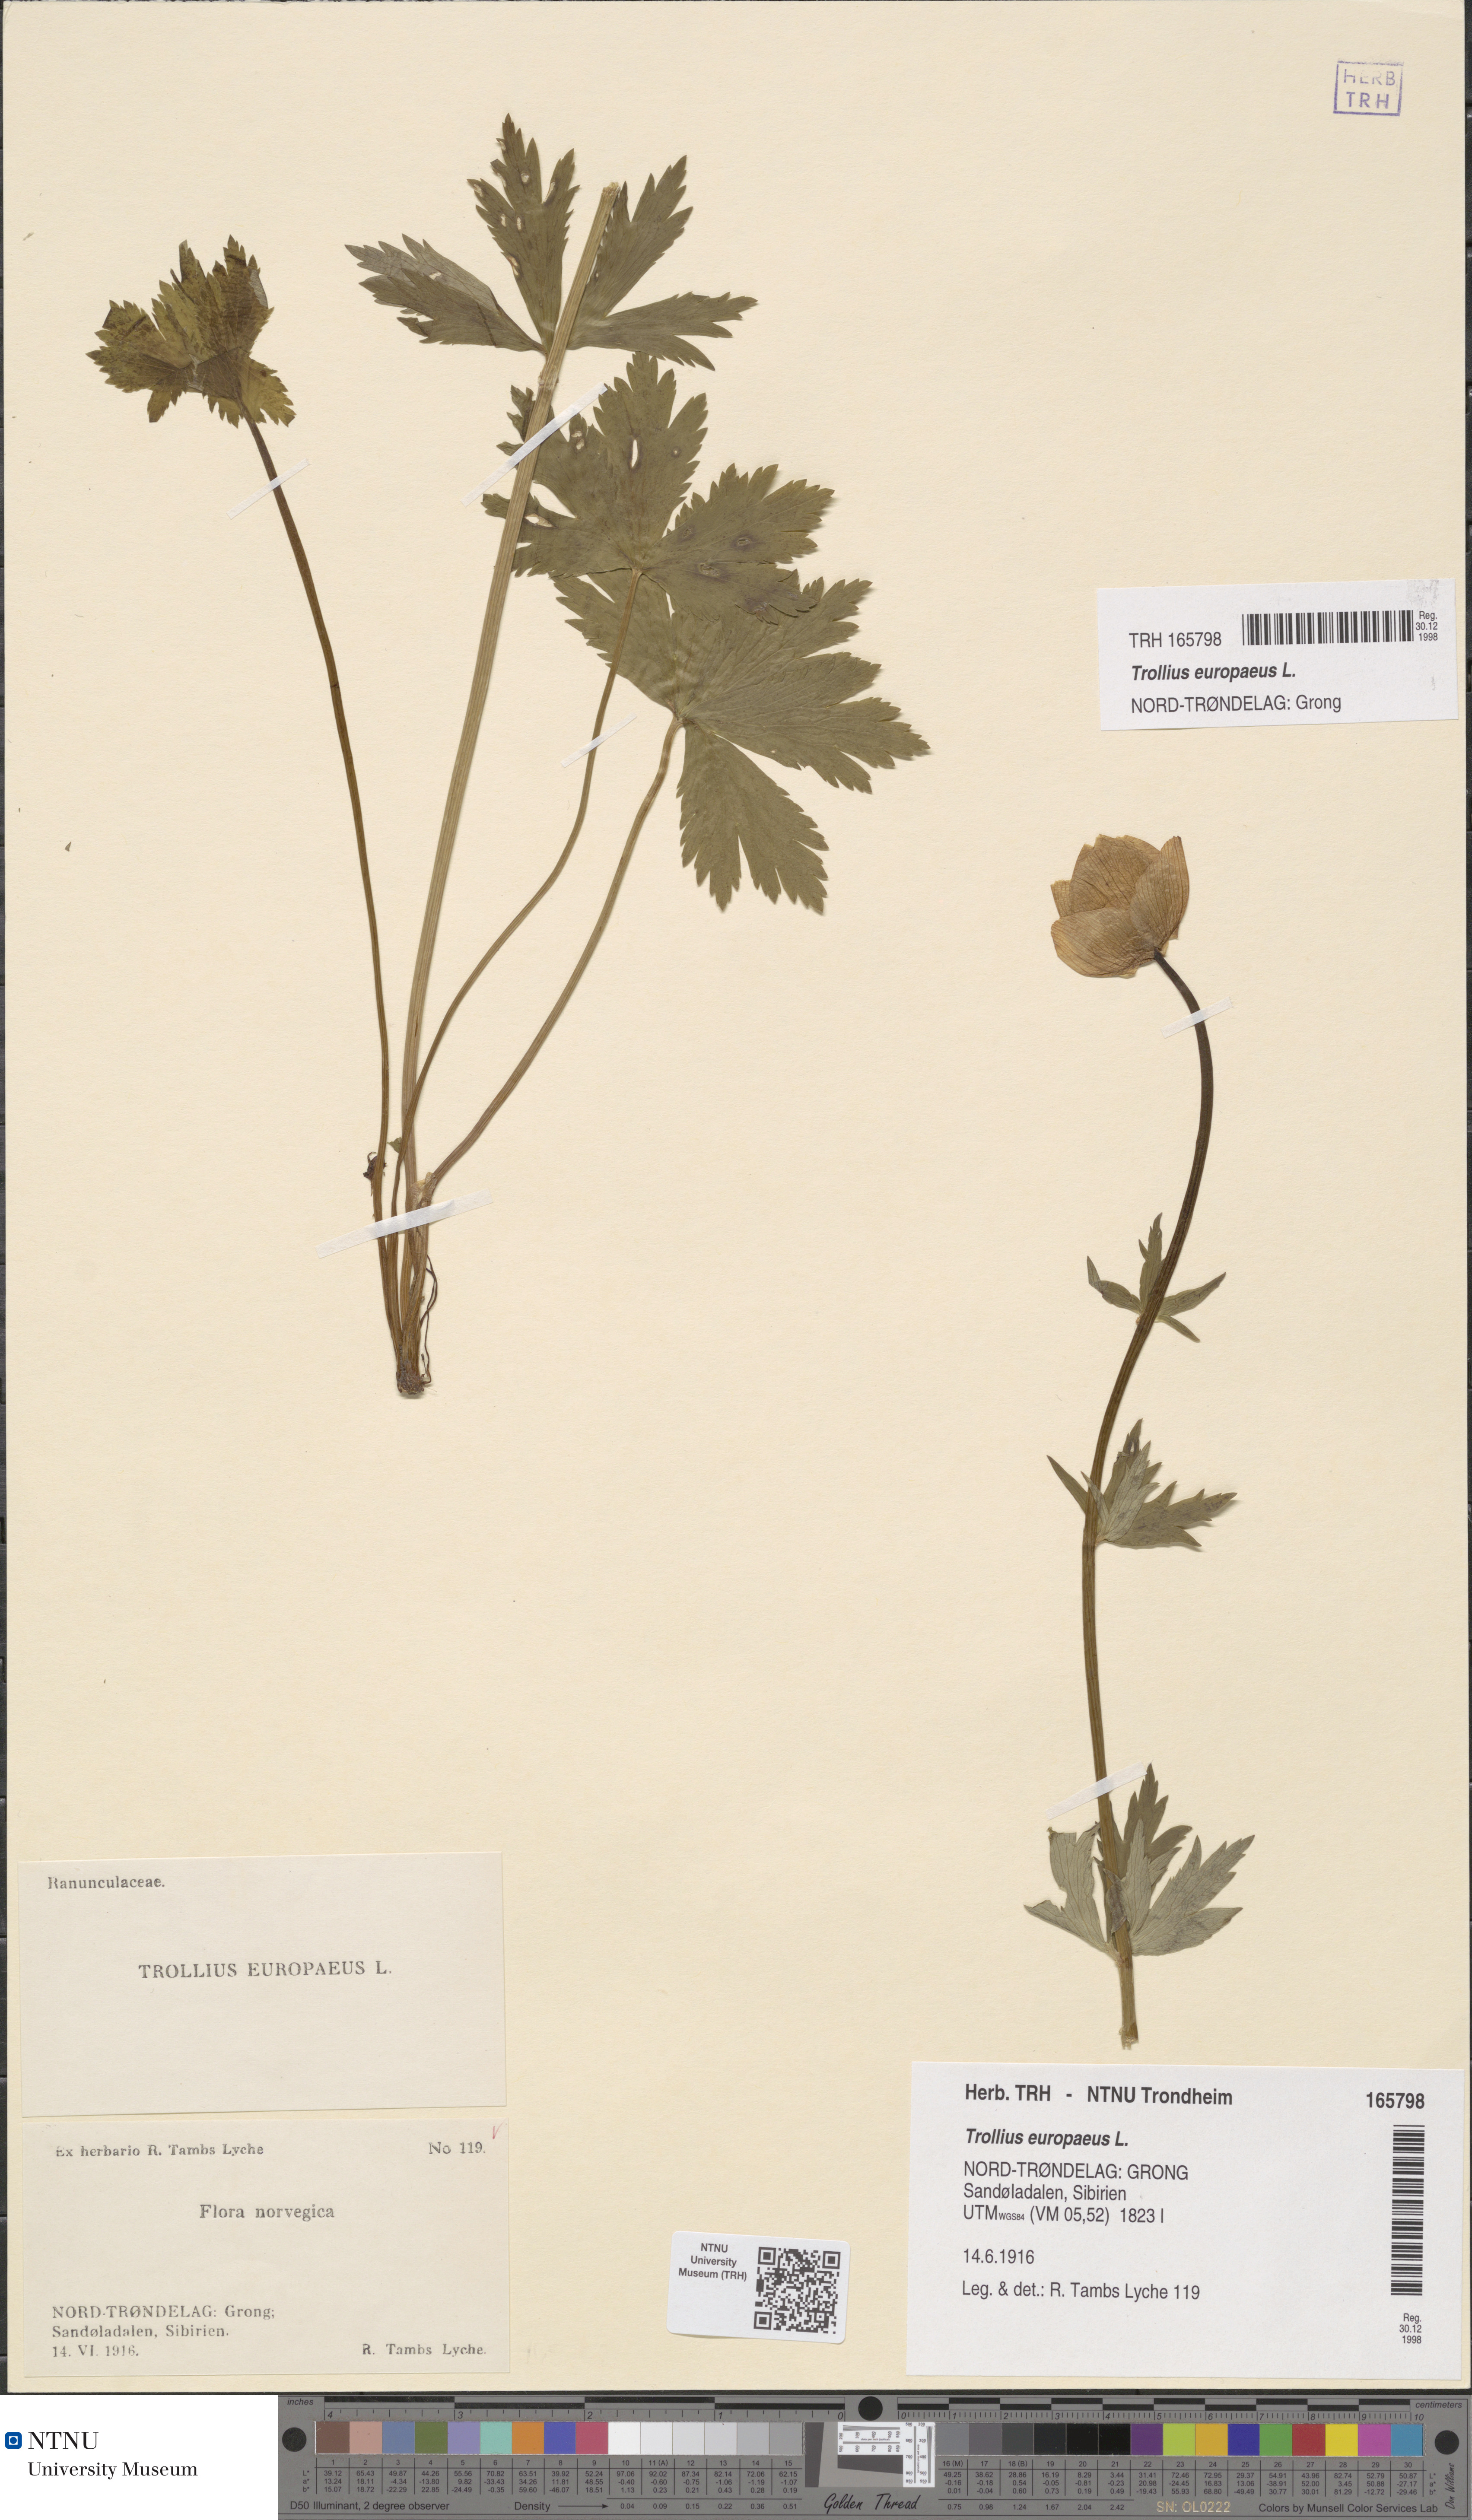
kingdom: Plantae
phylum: Tracheophyta
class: Magnoliopsida
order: Ranunculales
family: Ranunculaceae
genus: Trollius
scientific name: Trollius europaeus
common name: European globeflower
